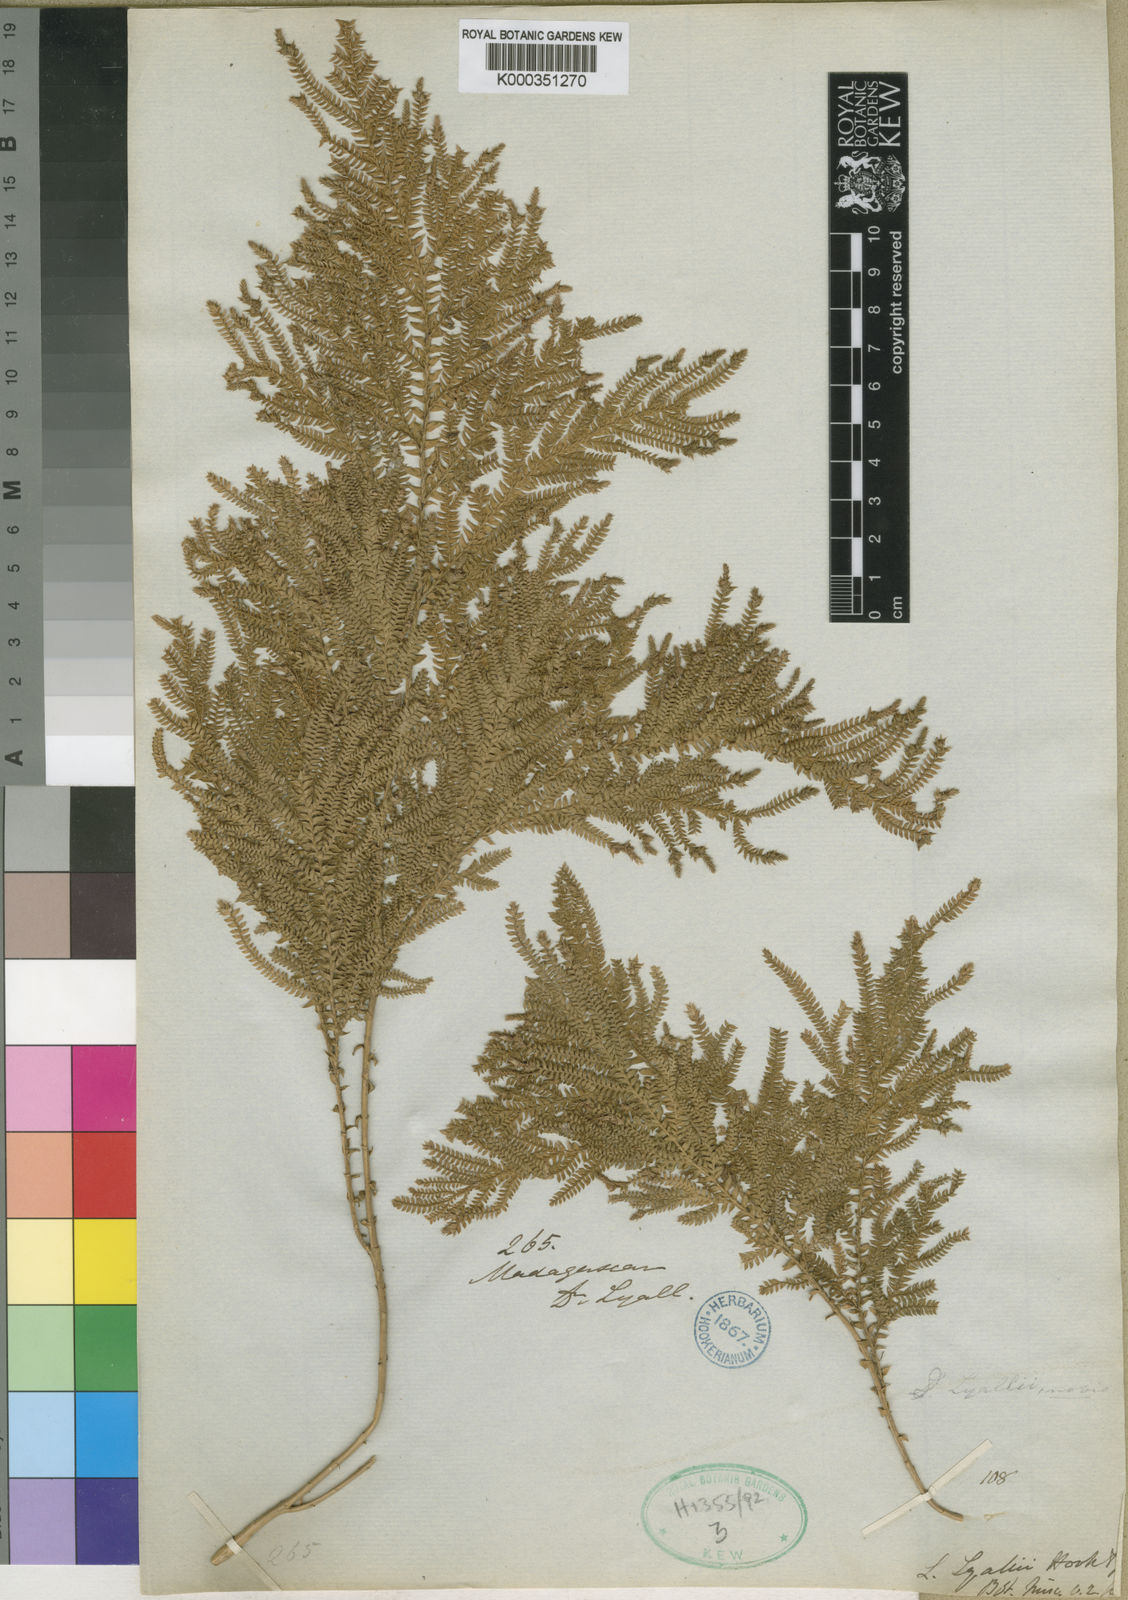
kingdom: Plantae
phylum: Tracheophyta
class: Lycopodiopsida
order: Selaginellales
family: Selaginellaceae
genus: Selaginella
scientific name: Selaginella lyallii
